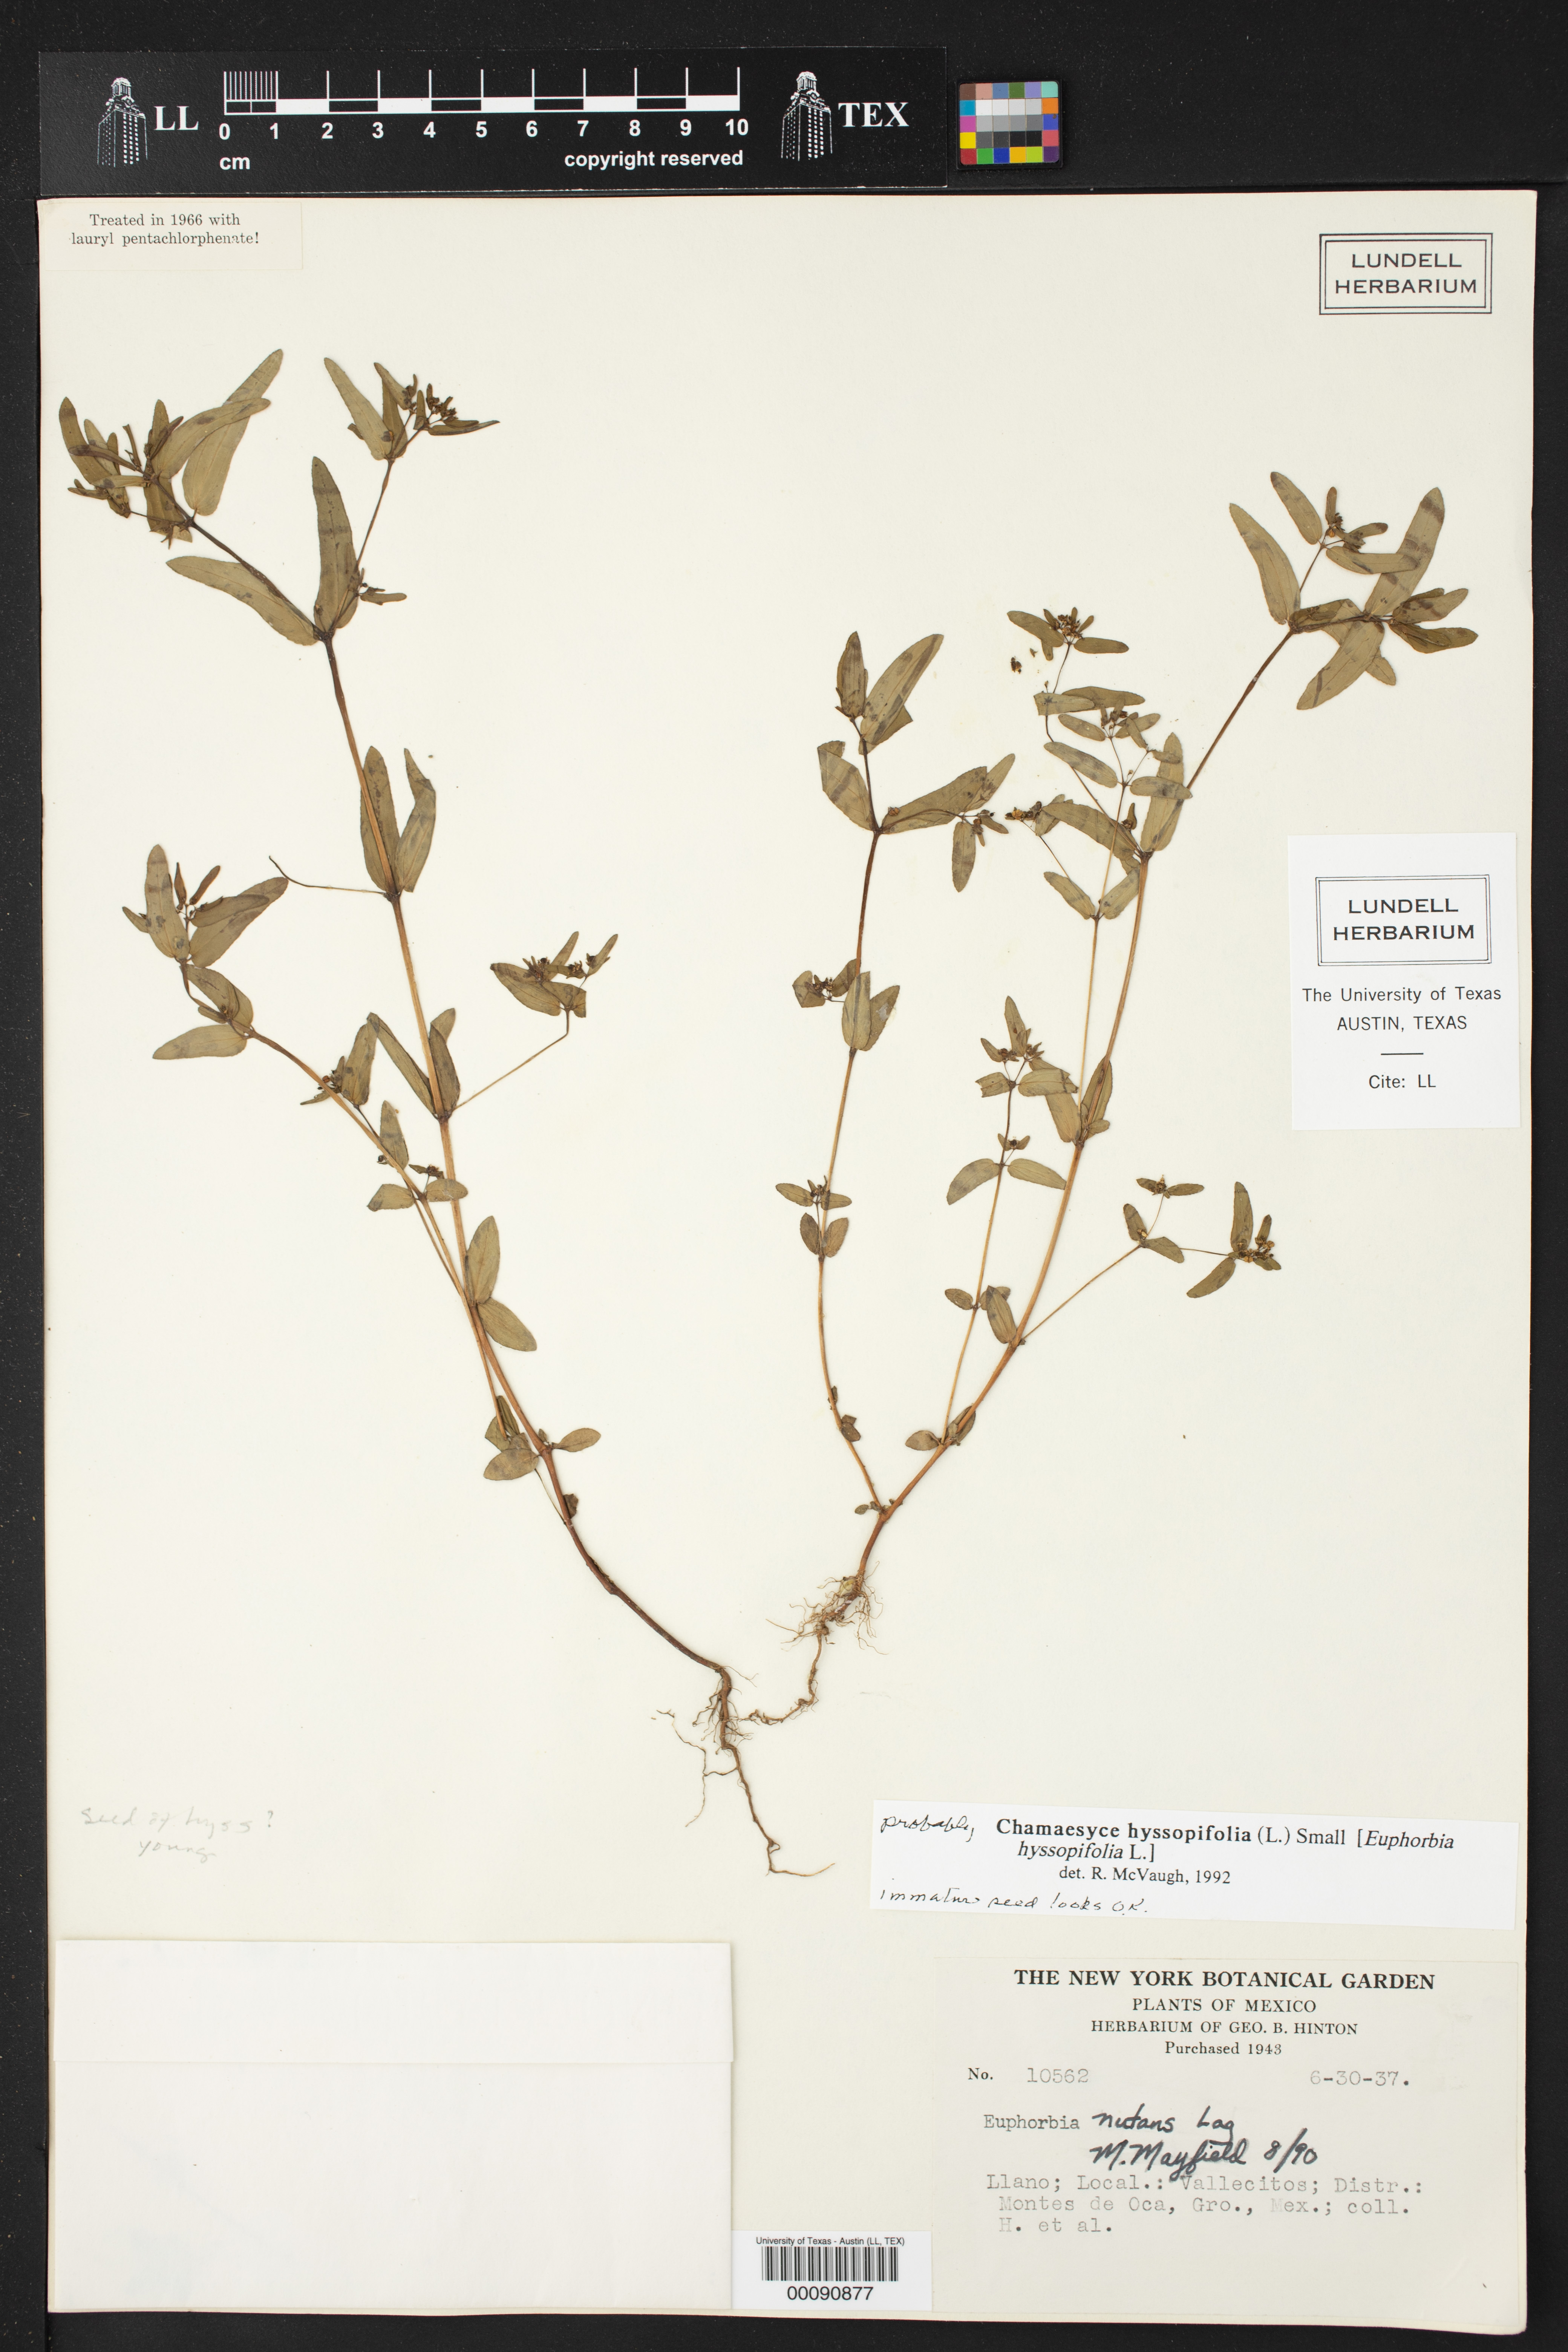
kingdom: Plantae
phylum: Tracheophyta
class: Magnoliopsida
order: Malpighiales
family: Euphorbiaceae
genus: Euphorbia
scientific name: Euphorbia hyssopifolia
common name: Hyssopleaf sandmat
